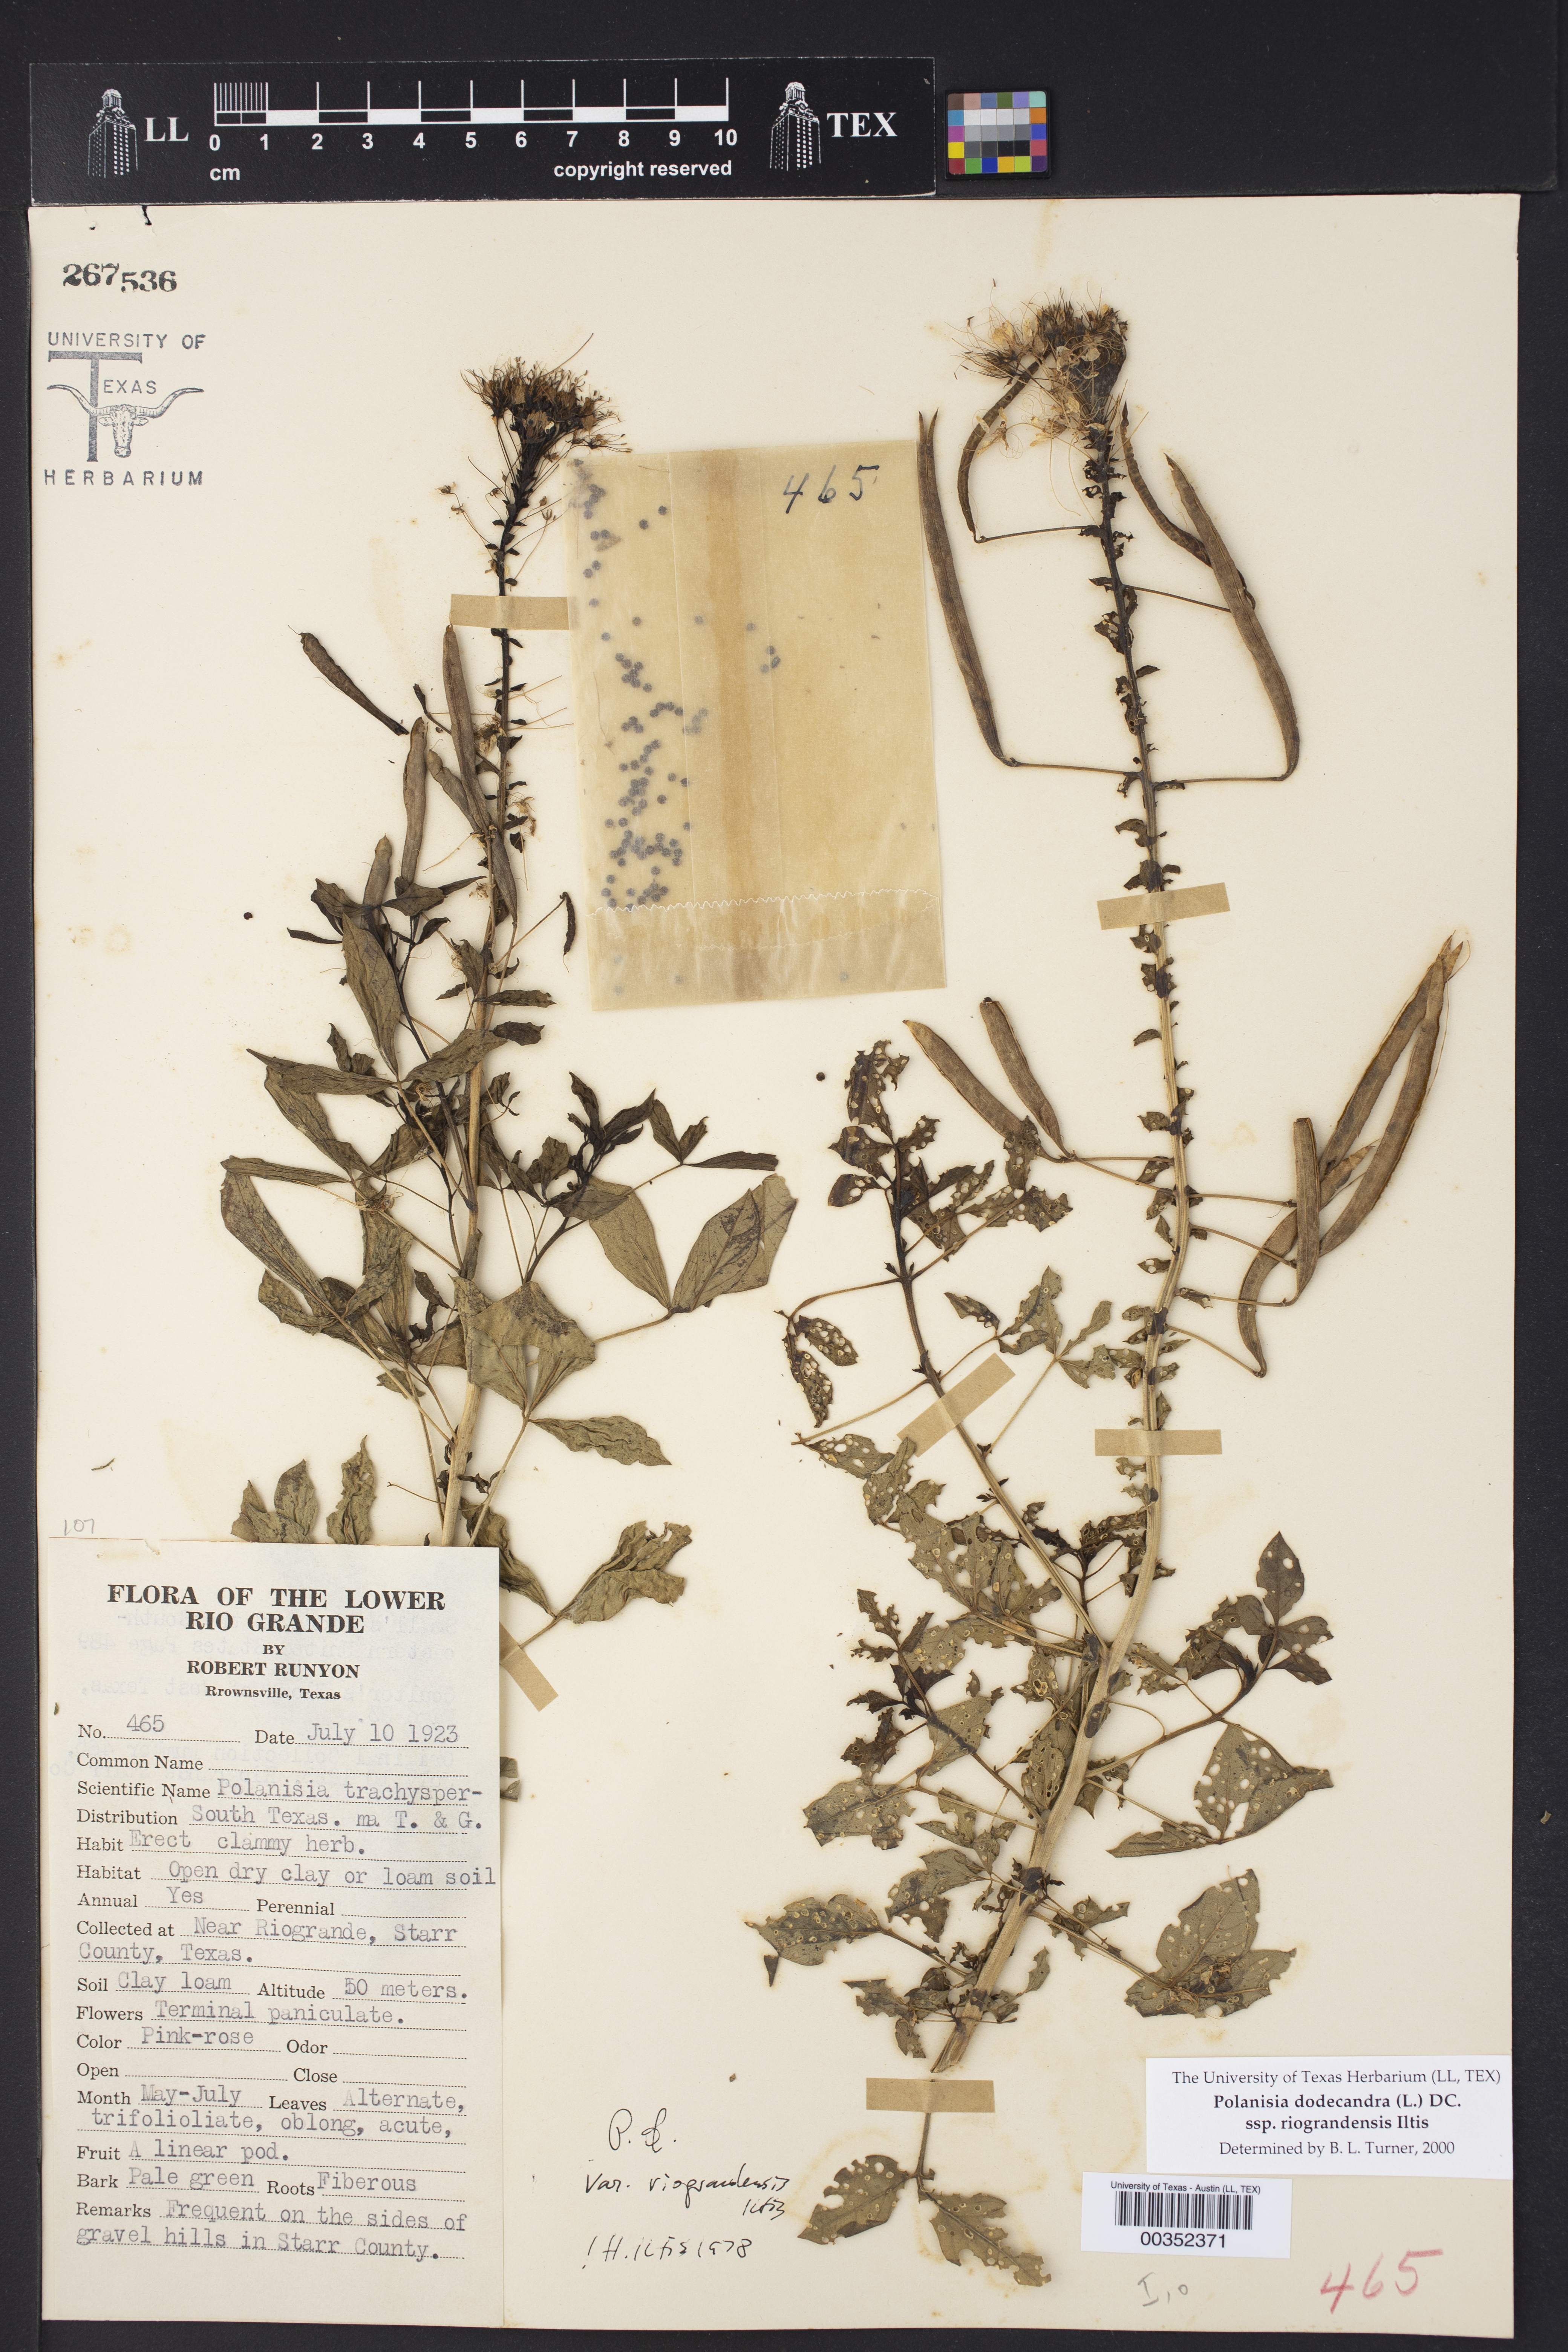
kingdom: Plantae
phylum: Tracheophyta
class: Magnoliopsida
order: Brassicales
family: Cleomaceae
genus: Polanisia
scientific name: Polanisia dodecandra
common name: Clammyweed
